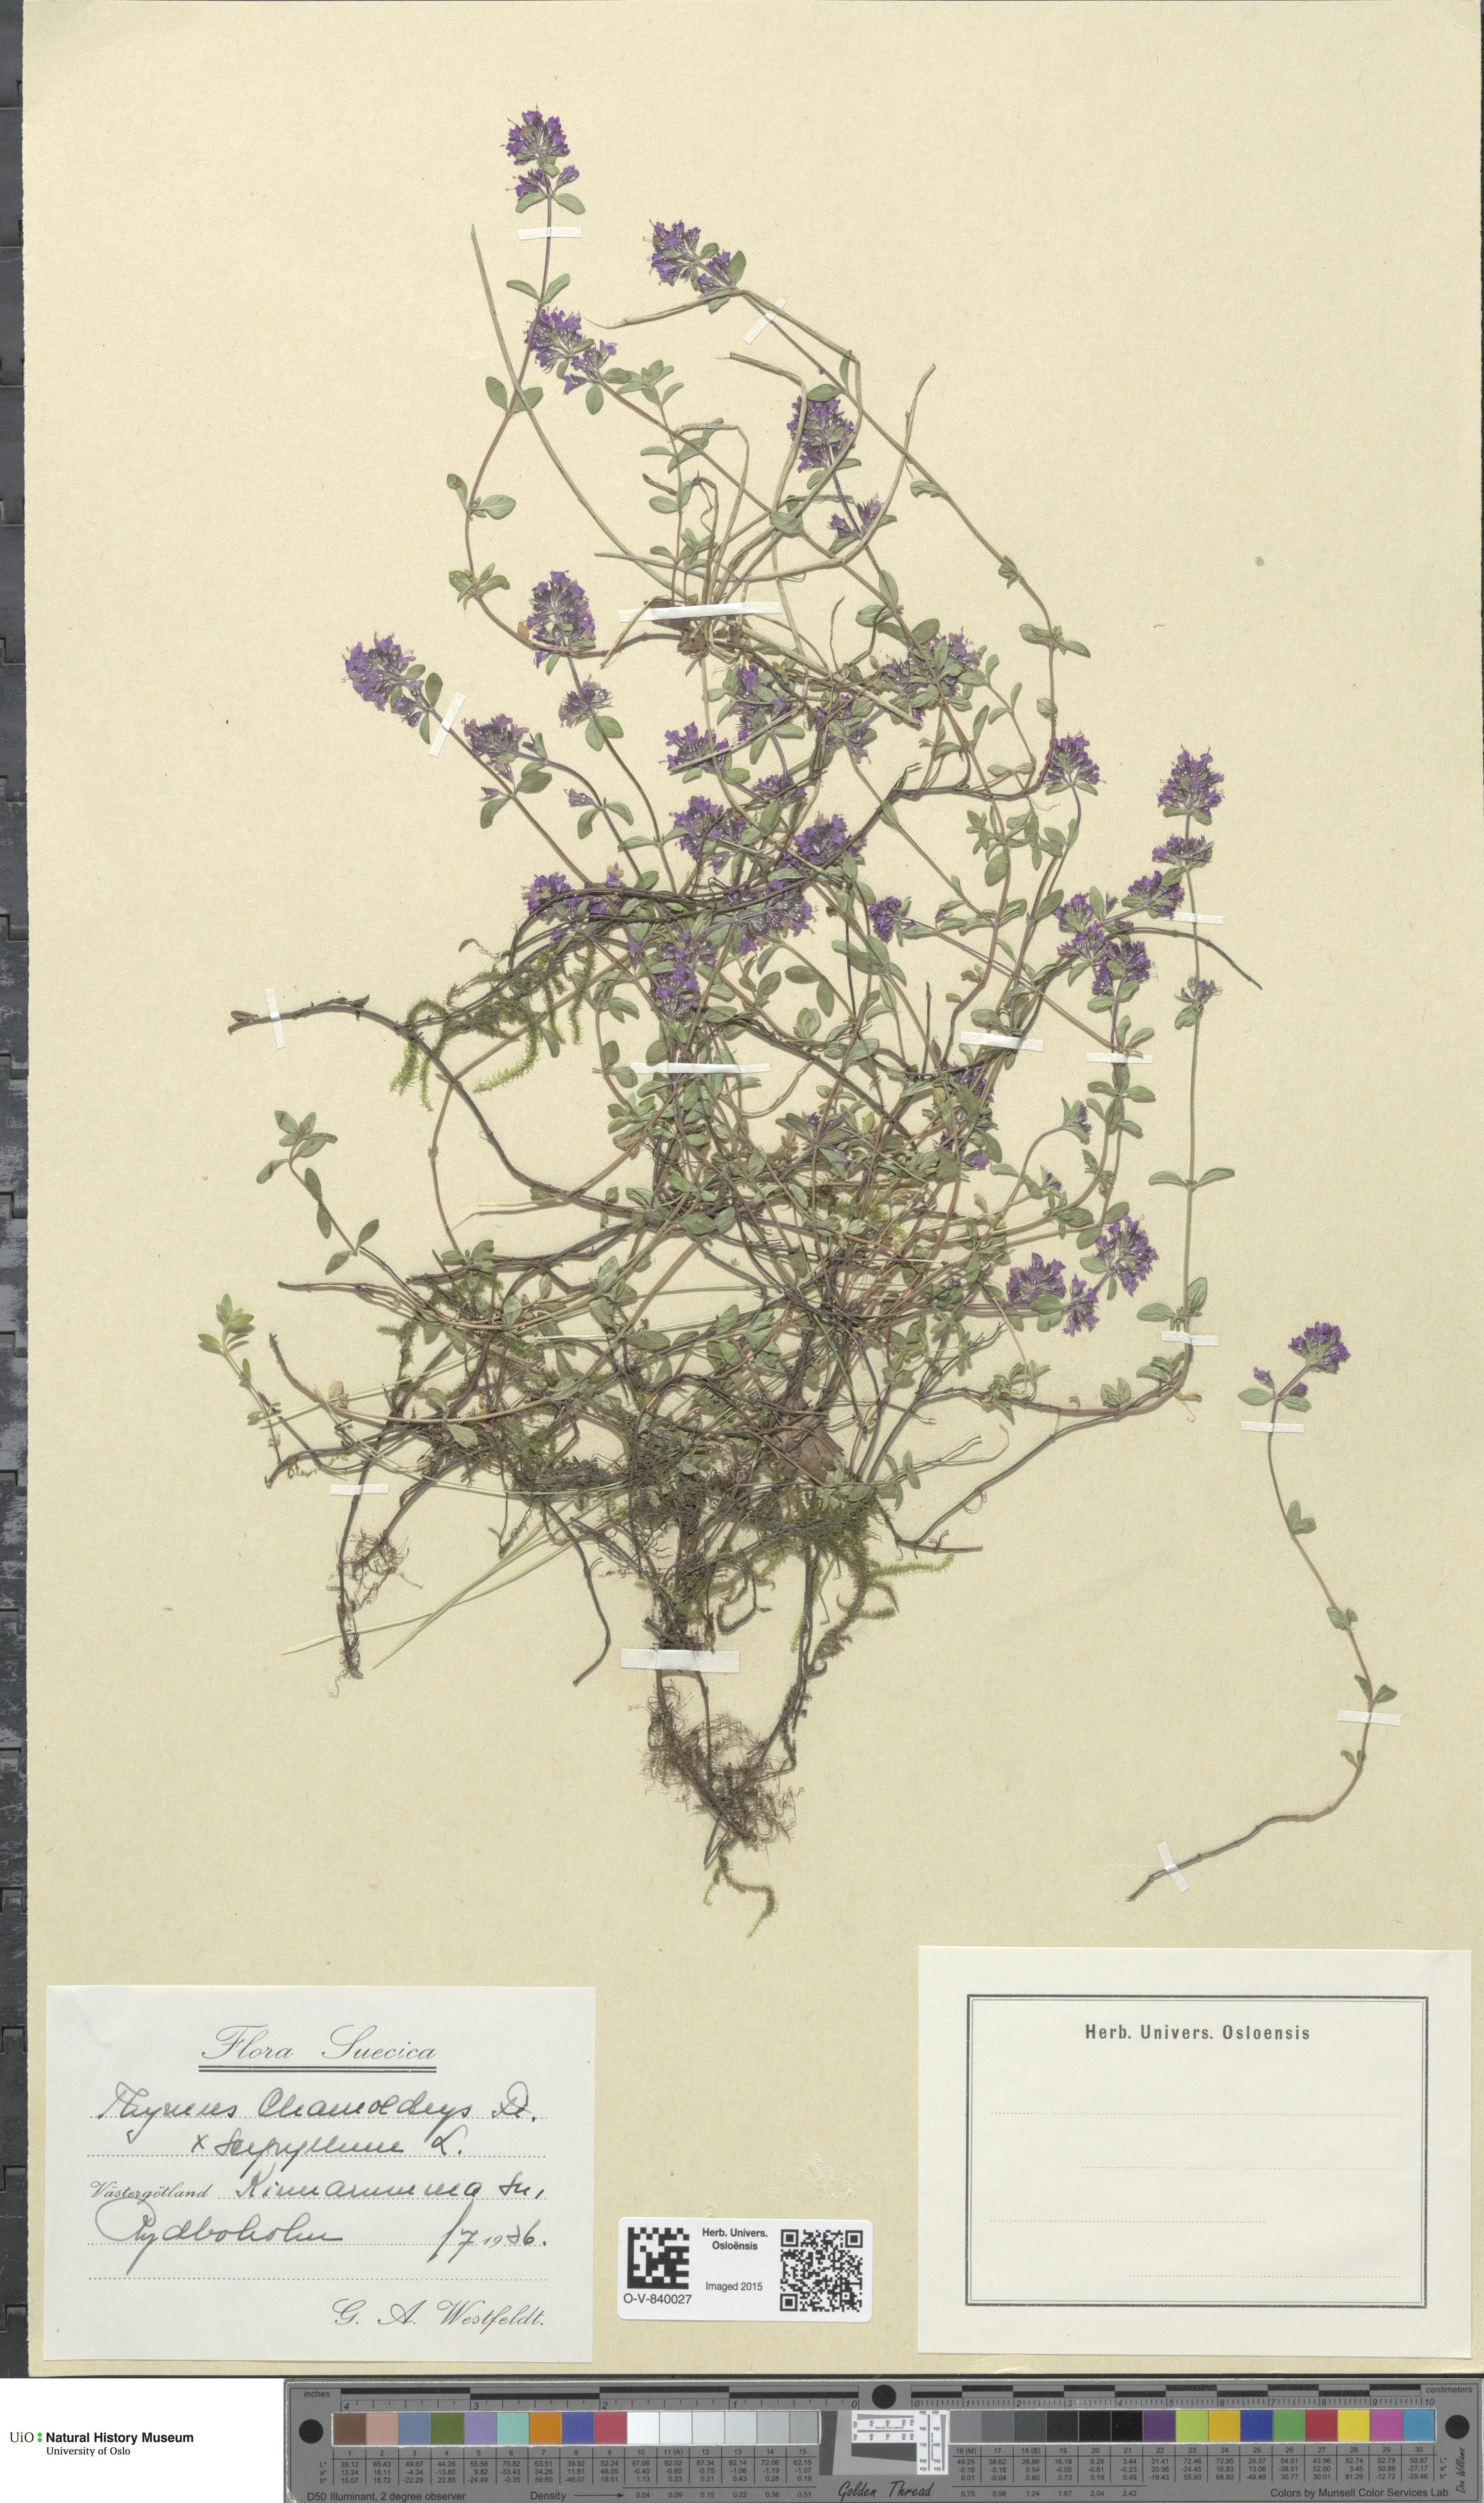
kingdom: Plantae
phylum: Tracheophyta
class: Magnoliopsida
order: Lamiales
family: Lamiaceae
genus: Thymus
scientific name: Thymus pulegioides
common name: Large thyme
